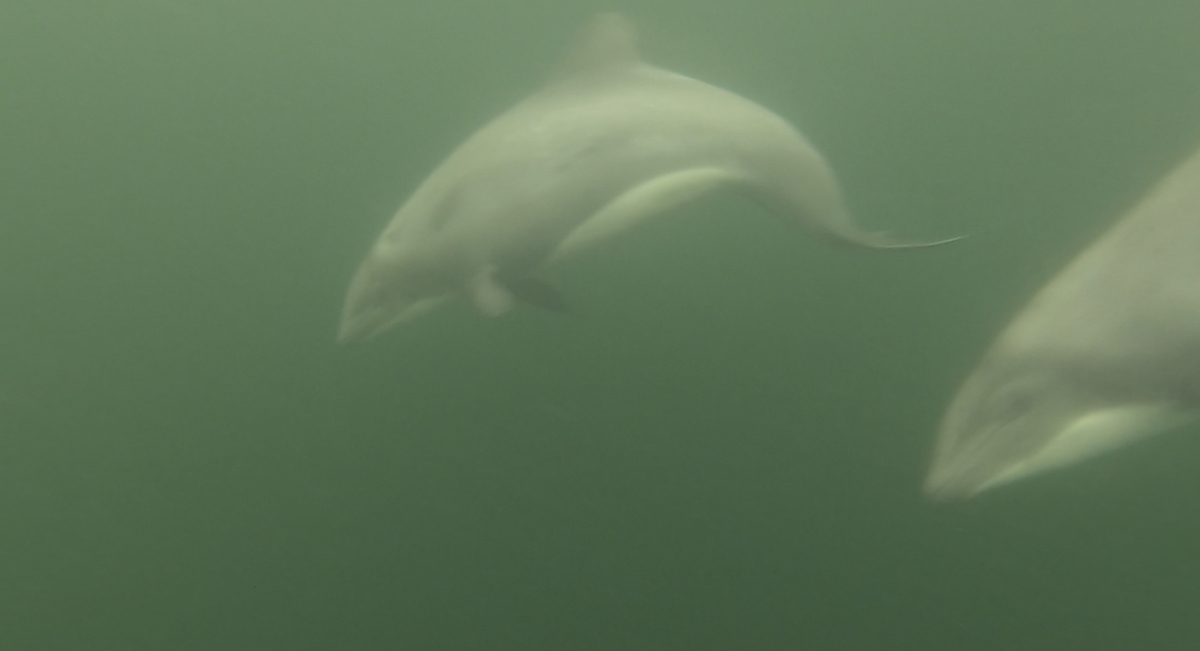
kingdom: Animalia
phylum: Chordata
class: Mammalia
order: Cetacea
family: Delphinidae
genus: Cephalorhynchus
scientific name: Cephalorhynchus eutropia
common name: Black dolphin
